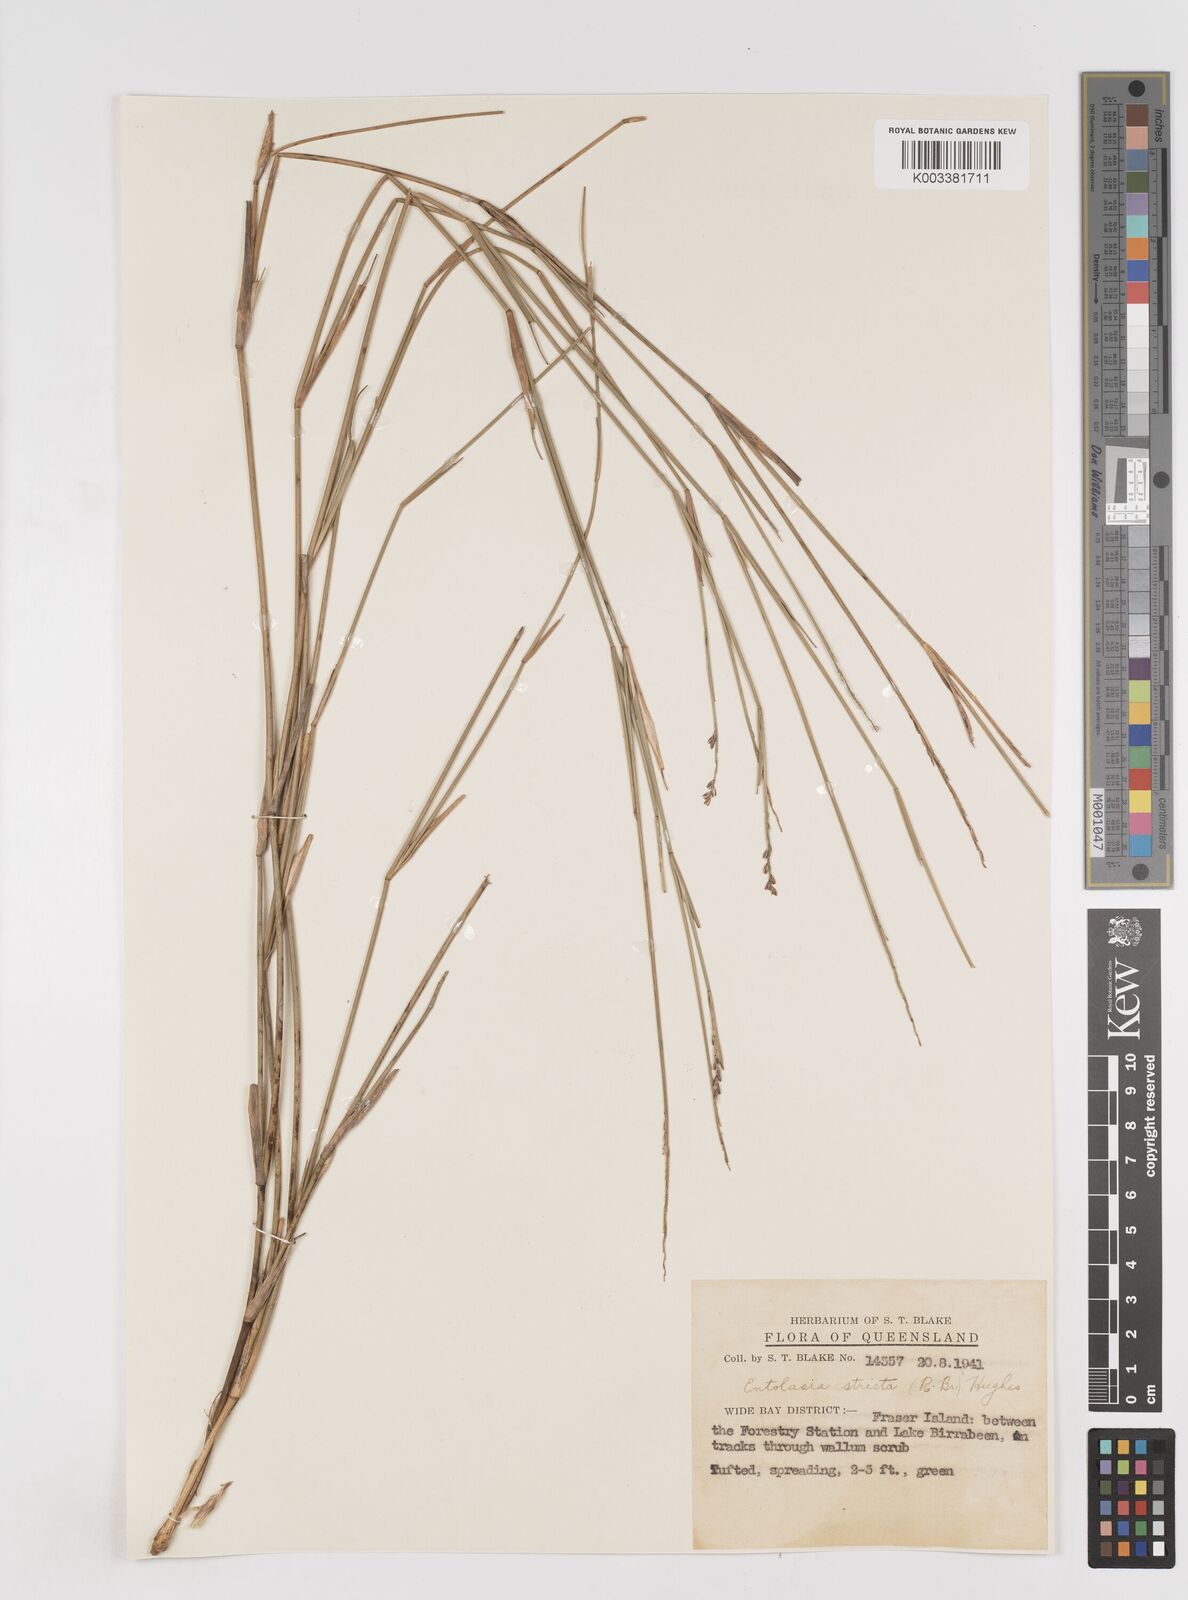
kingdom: Plantae
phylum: Tracheophyta
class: Liliopsida
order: Poales
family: Poaceae
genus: Entolasia
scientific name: Entolasia stricta
